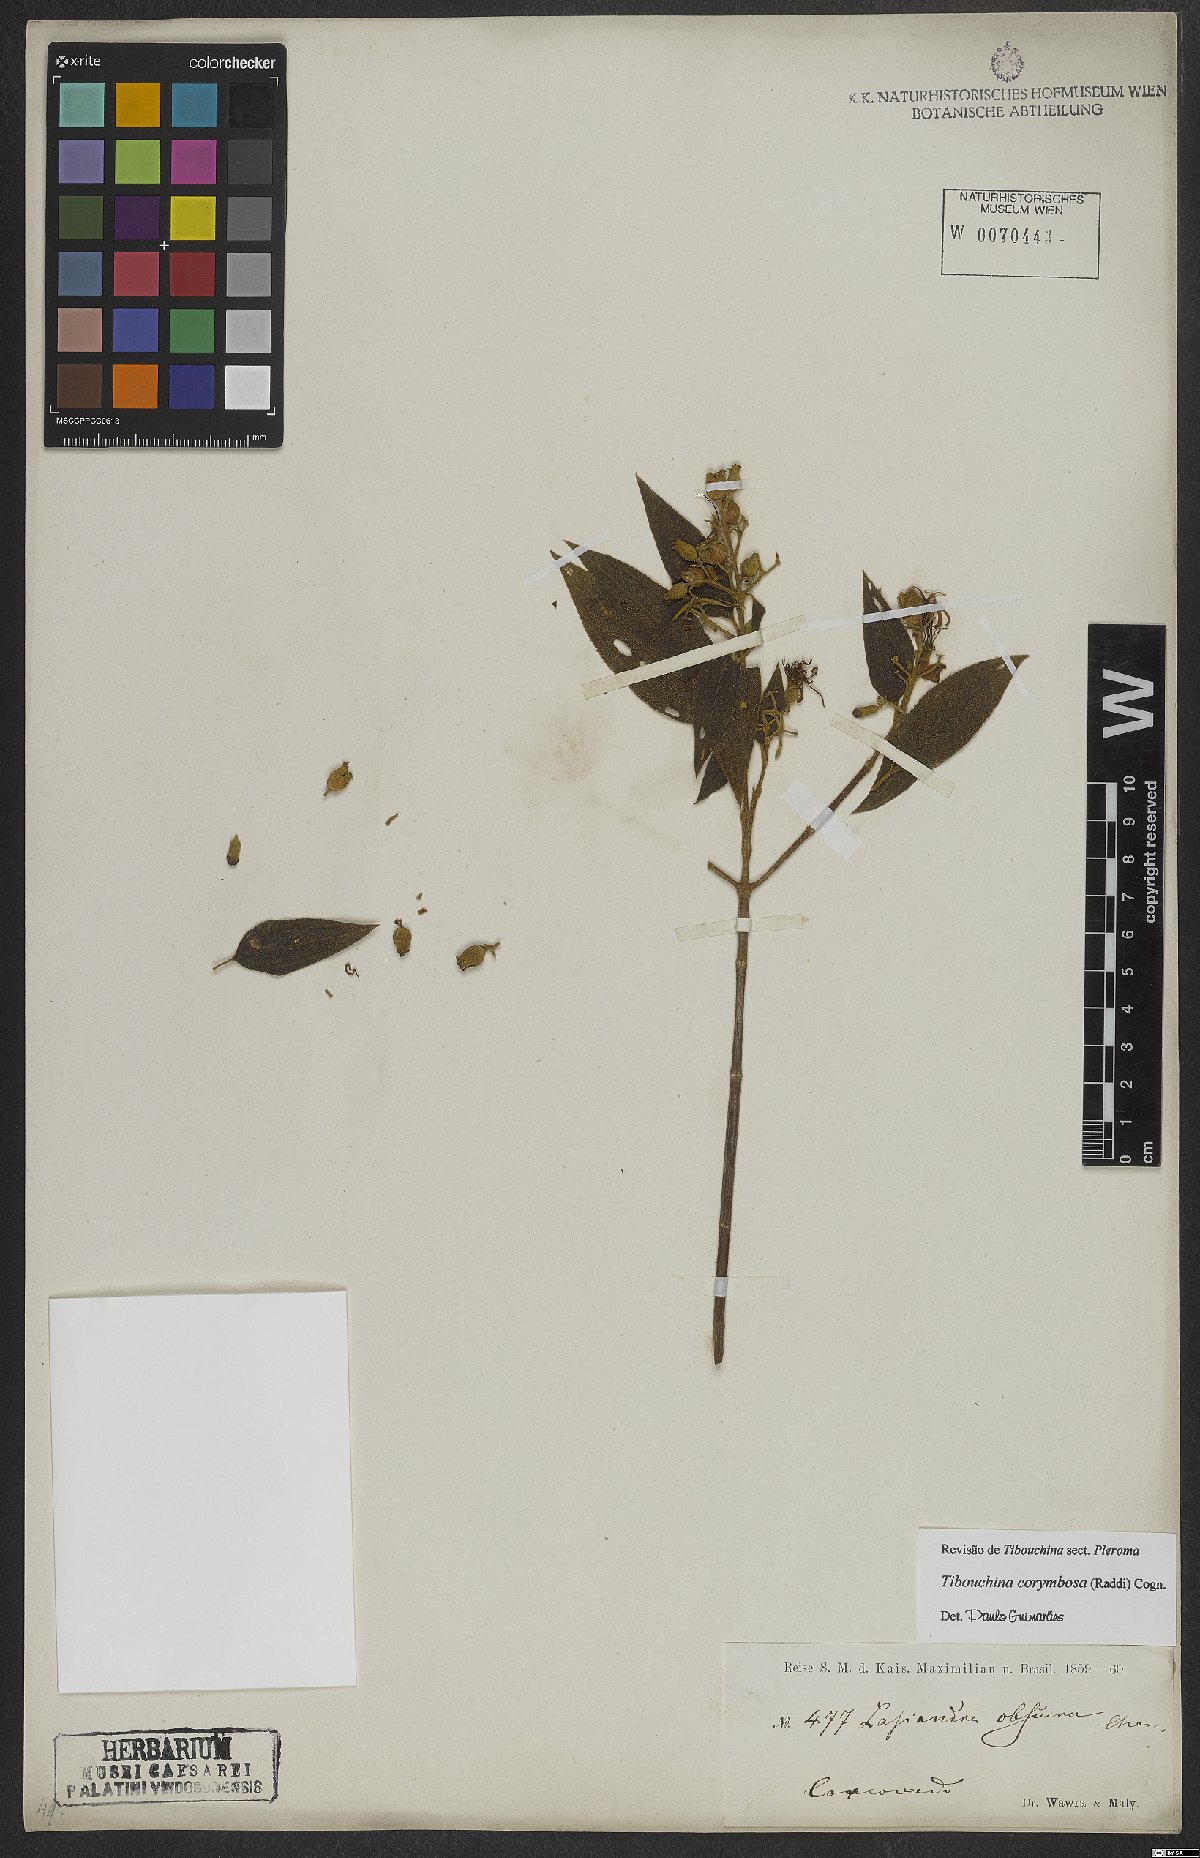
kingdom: Plantae
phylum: Tracheophyta
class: Magnoliopsida
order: Myrtales
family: Melastomataceae
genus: Pleroma
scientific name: Pleroma vimineum
